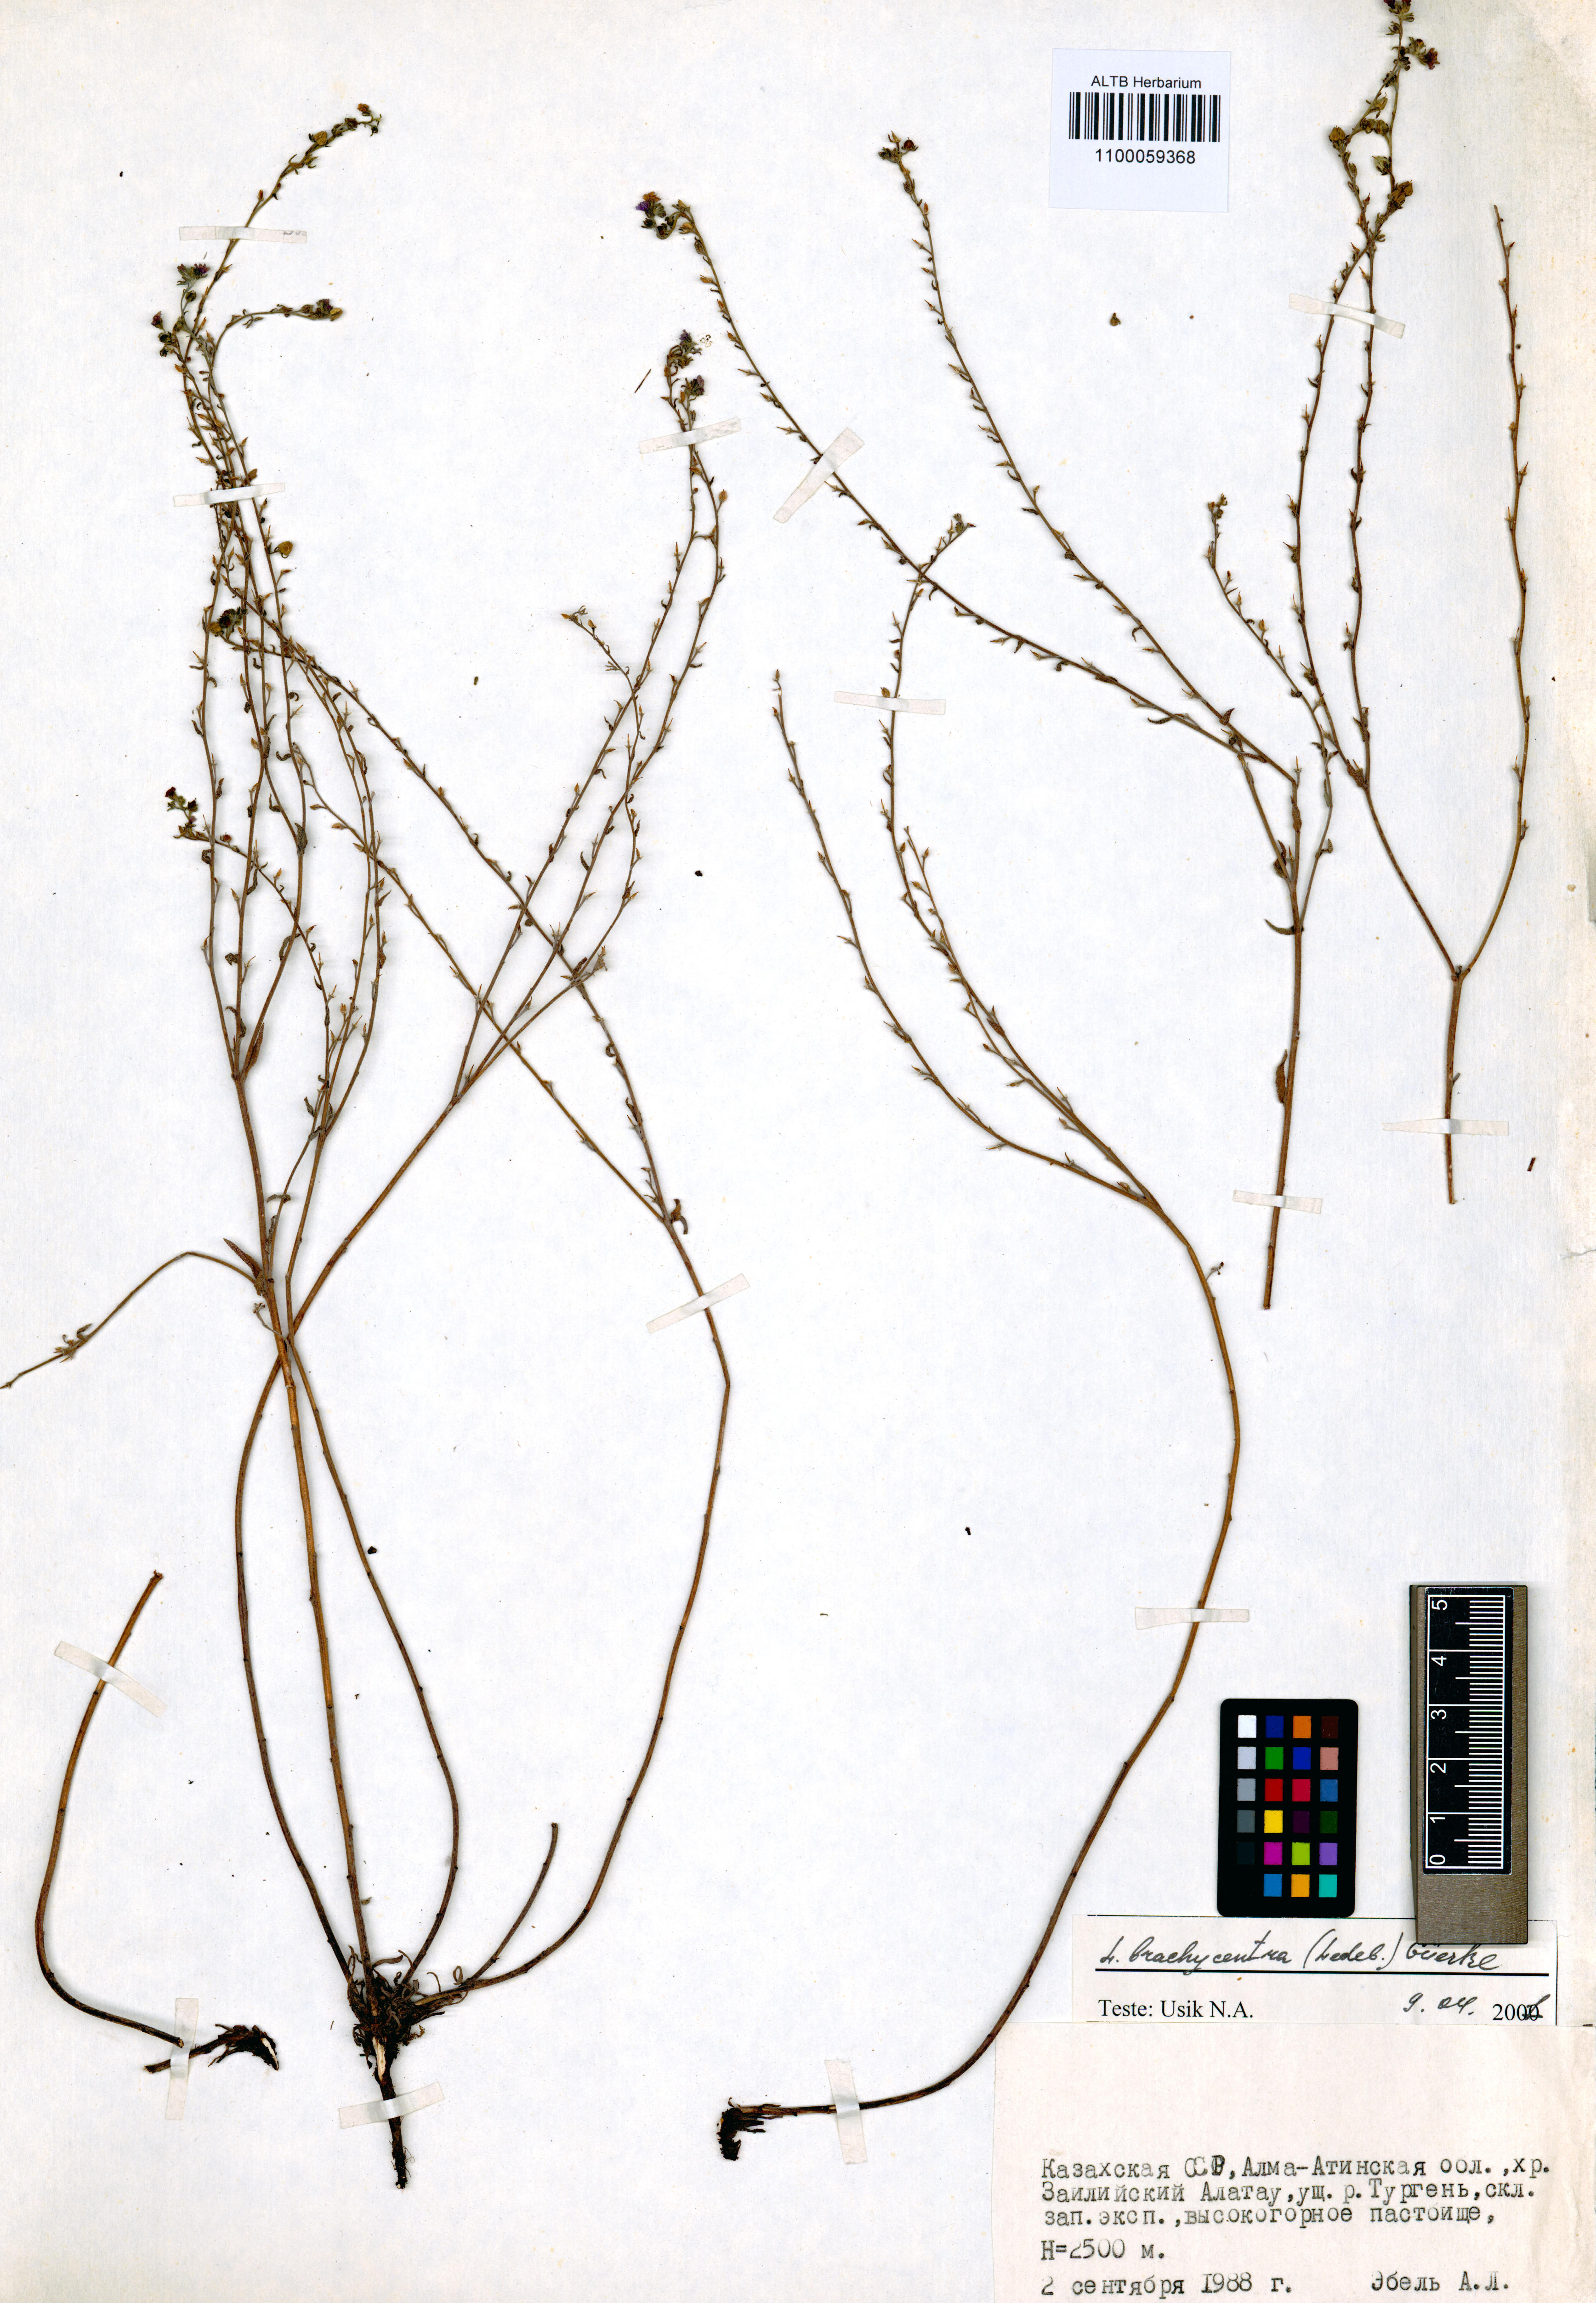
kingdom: Plantae
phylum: Tracheophyta
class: Magnoliopsida
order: Boraginales
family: Boraginaceae
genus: Lappula
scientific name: Lappula brachycentra
